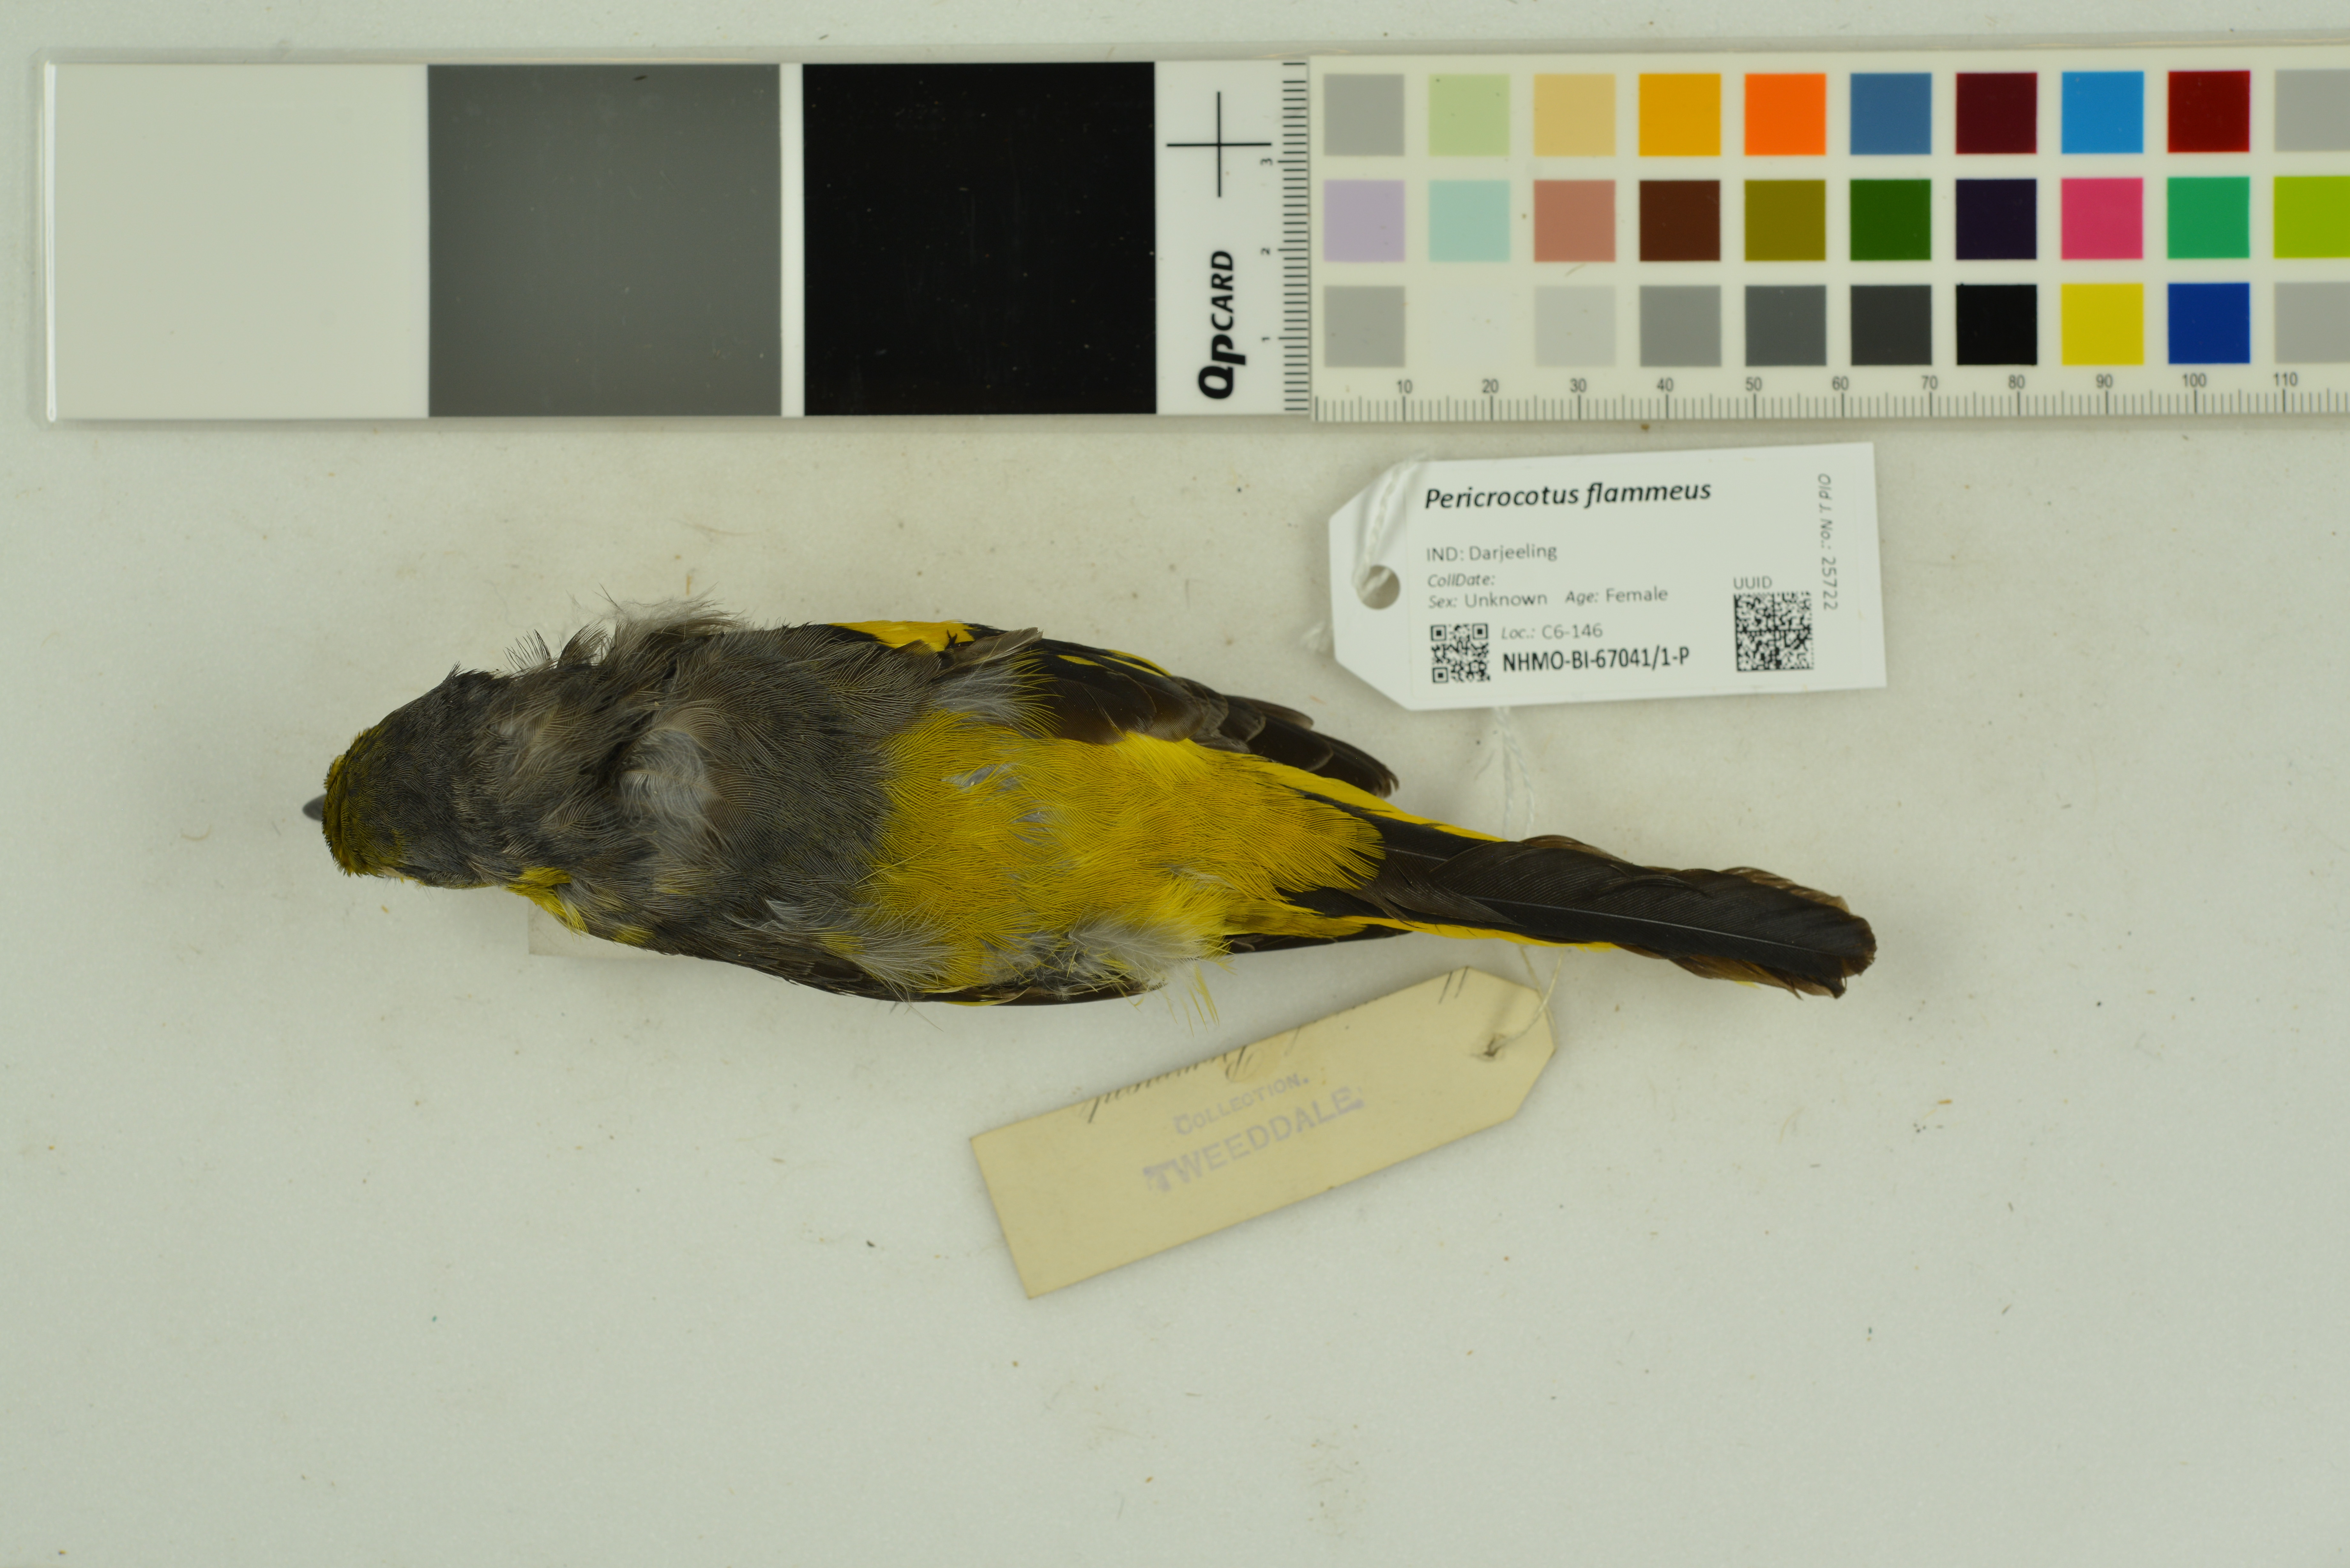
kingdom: Animalia
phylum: Chordata
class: Aves
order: Passeriformes
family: Campephagidae
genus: Pericrocotus
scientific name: Pericrocotus flammeus
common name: Orange minivet
